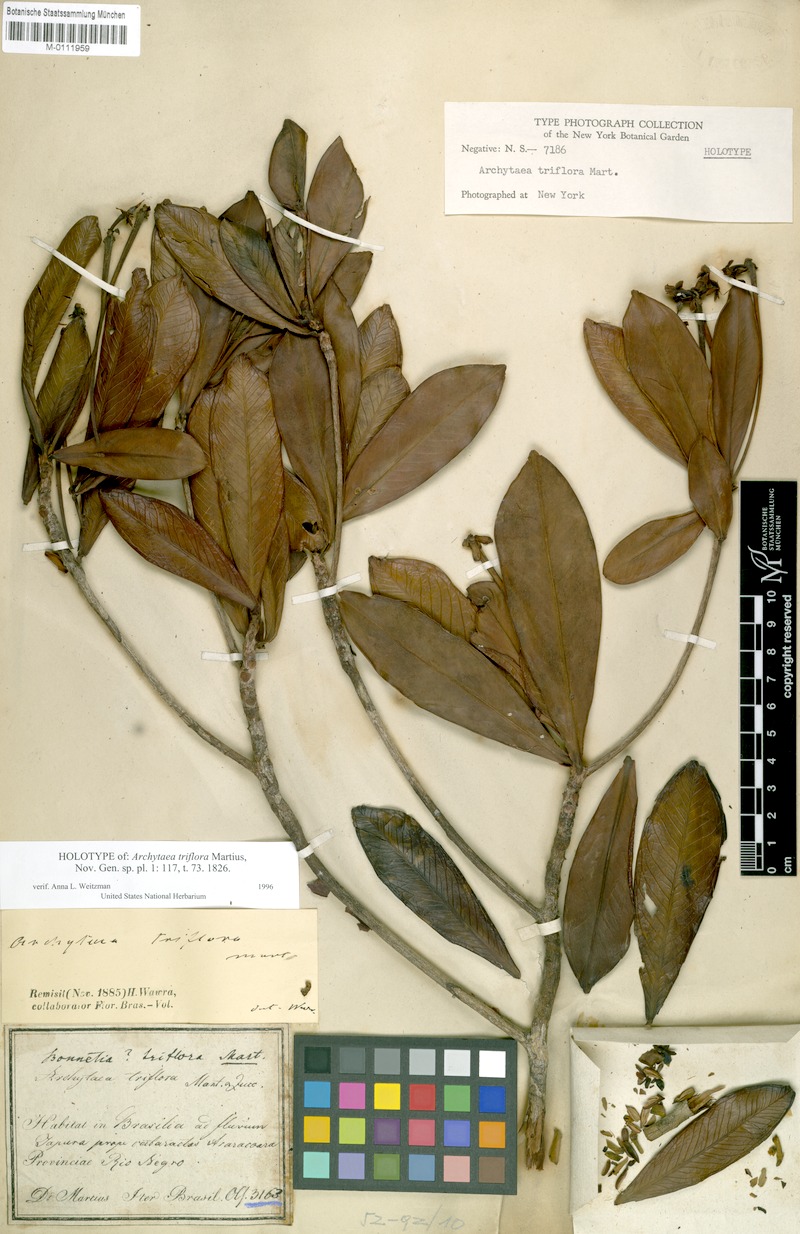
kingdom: Plantae
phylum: Tracheophyta
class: Magnoliopsida
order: Malpighiales
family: Bonnetiaceae
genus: Archytaea
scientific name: Archytaea triflora
